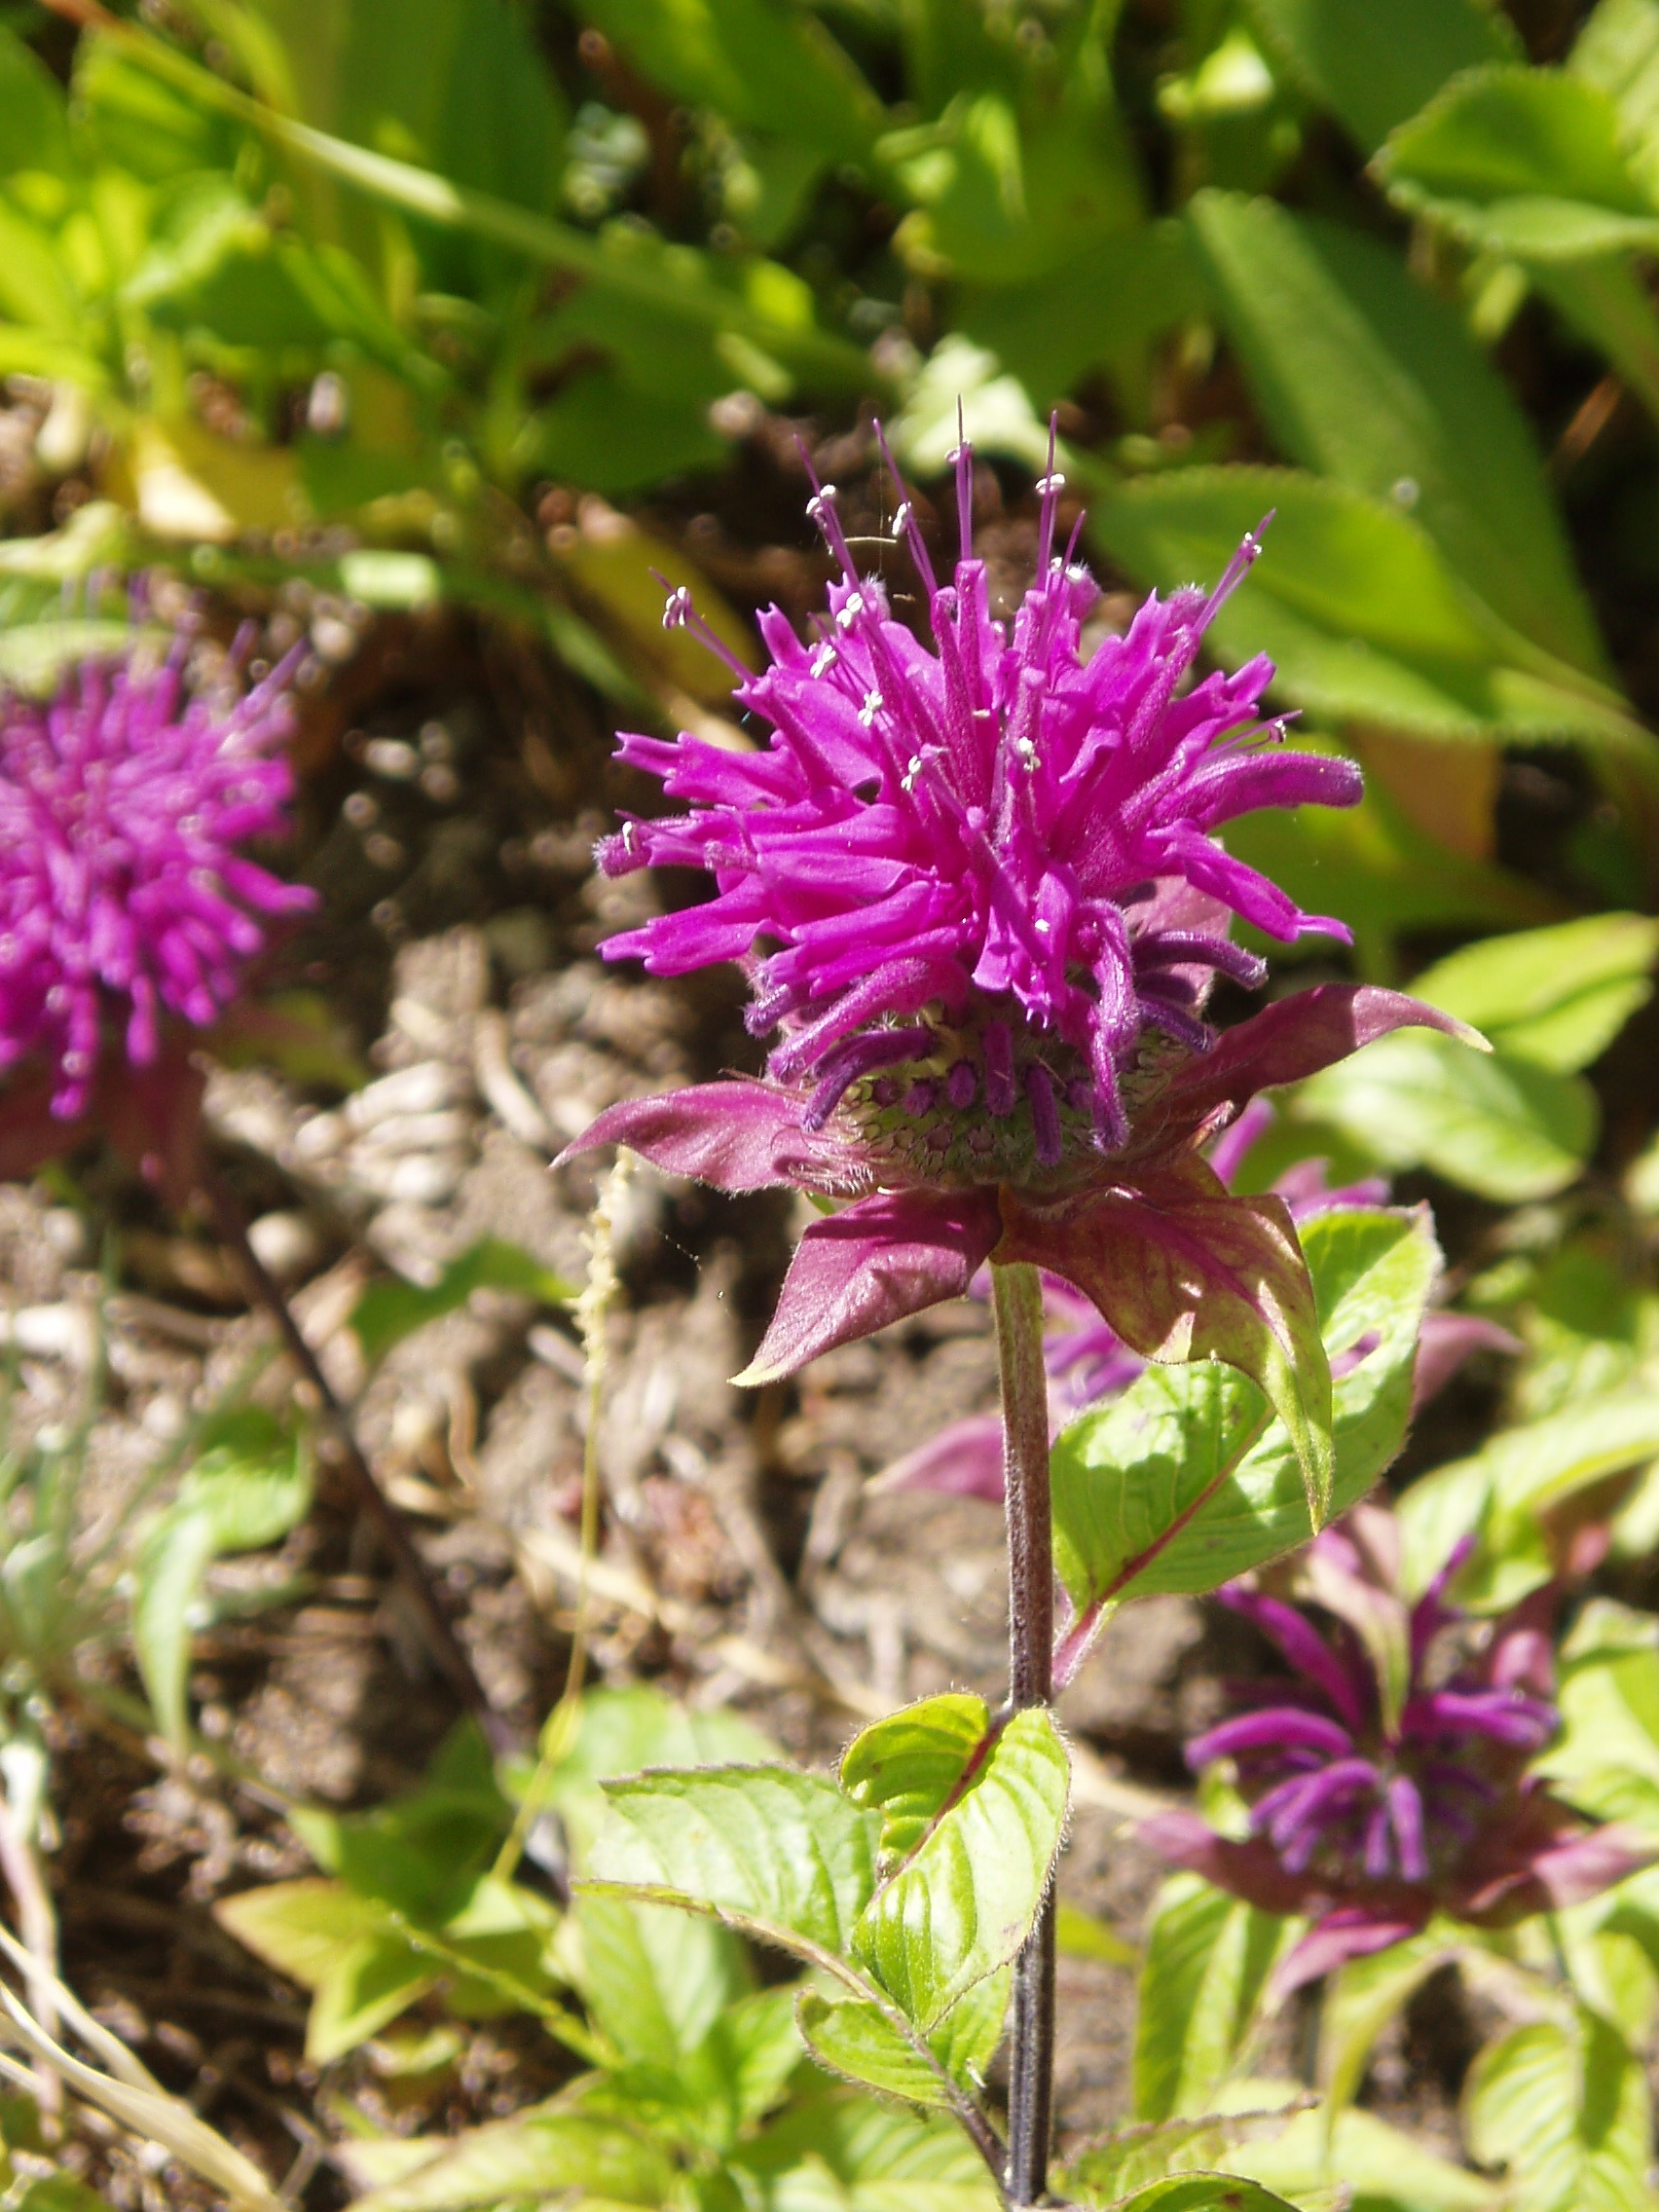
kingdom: Plantae
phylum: Tracheophyta
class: Magnoliopsida
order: Lamiales
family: Lamiaceae
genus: Monarda
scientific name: Monarda didyma
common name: Beebalm
